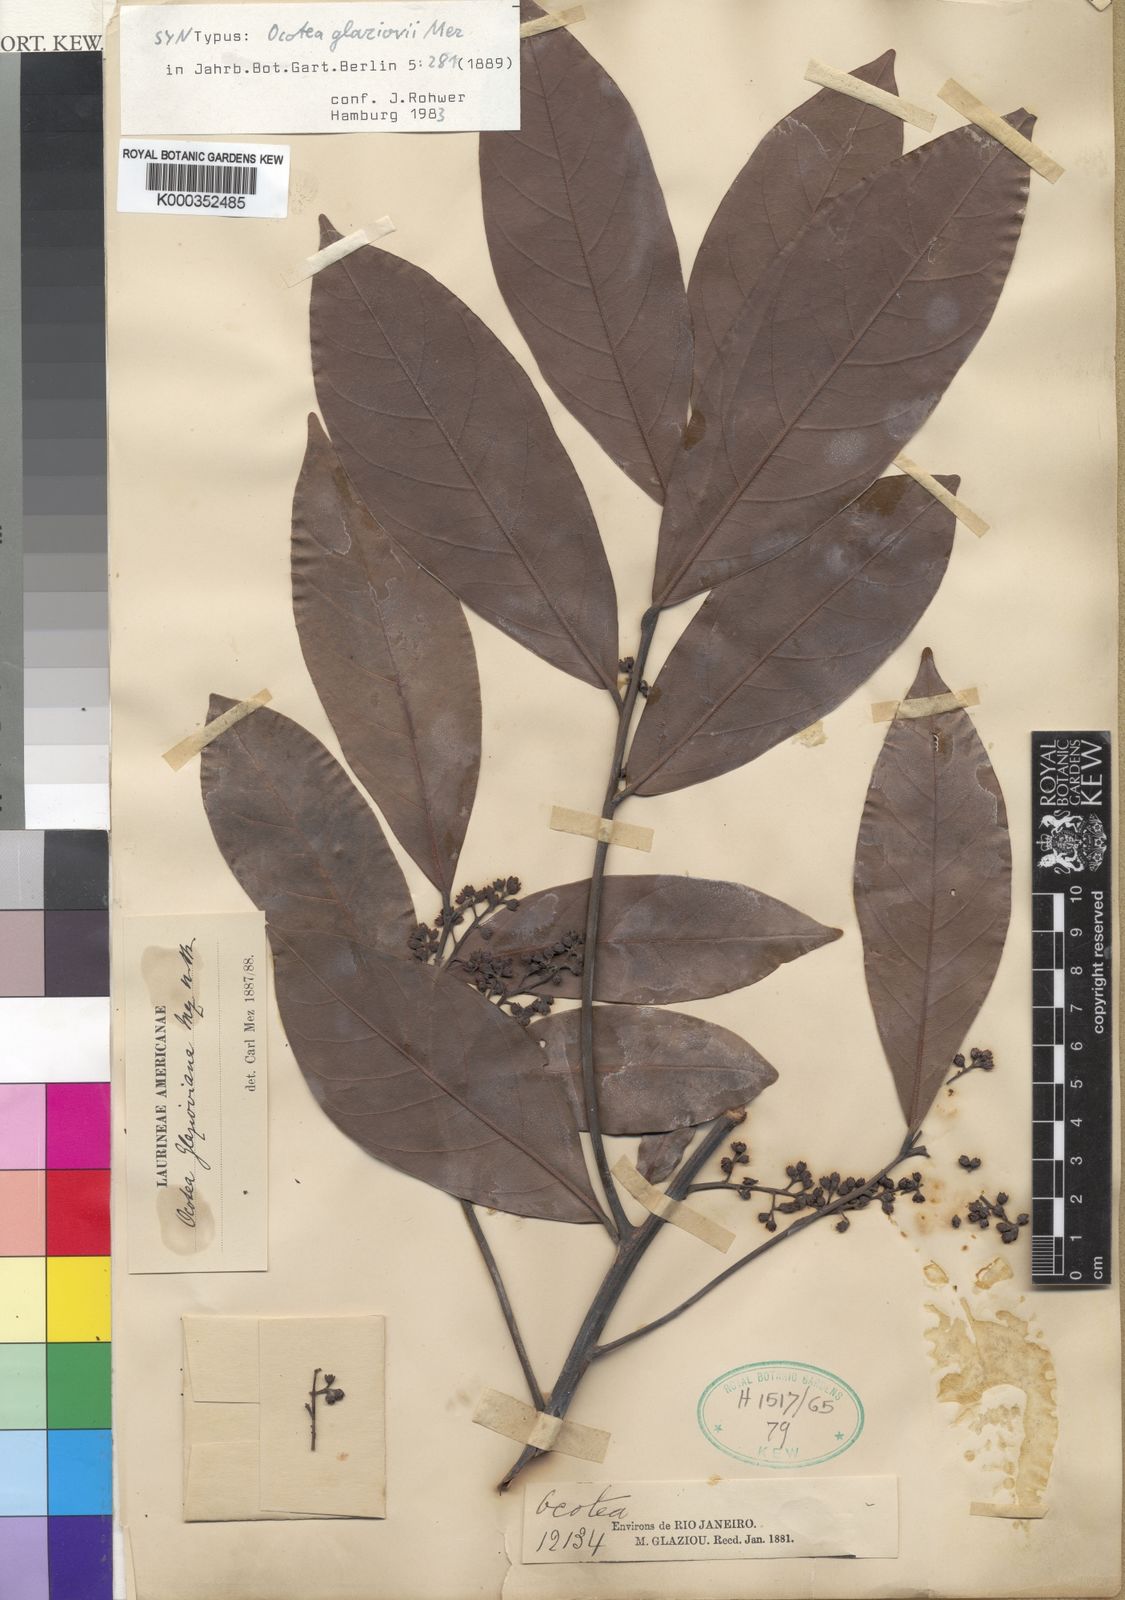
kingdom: Plantae
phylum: Tracheophyta
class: Magnoliopsida
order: Laurales
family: Lauraceae
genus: Ocotea
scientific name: Ocotea glaziovii
